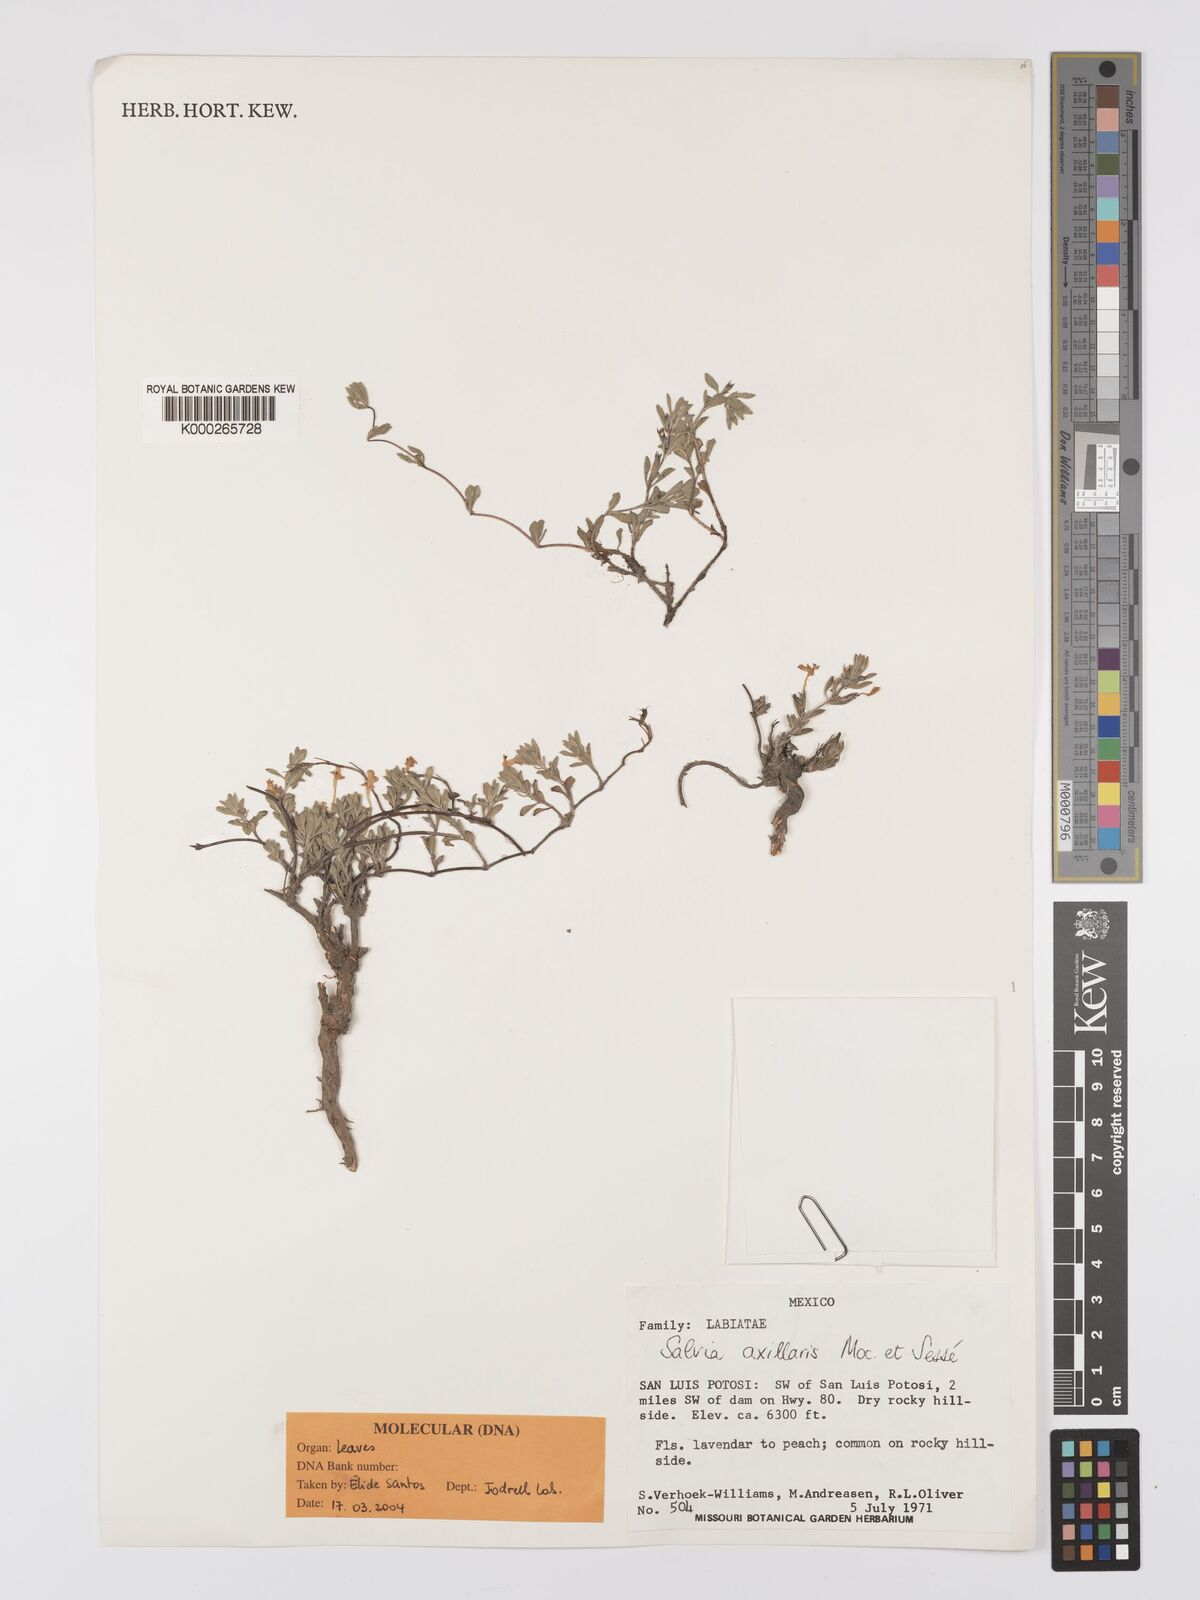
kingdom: Plantae
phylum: Tracheophyta
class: Magnoliopsida
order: Lamiales
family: Lamiaceae
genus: Salvia
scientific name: Salvia
